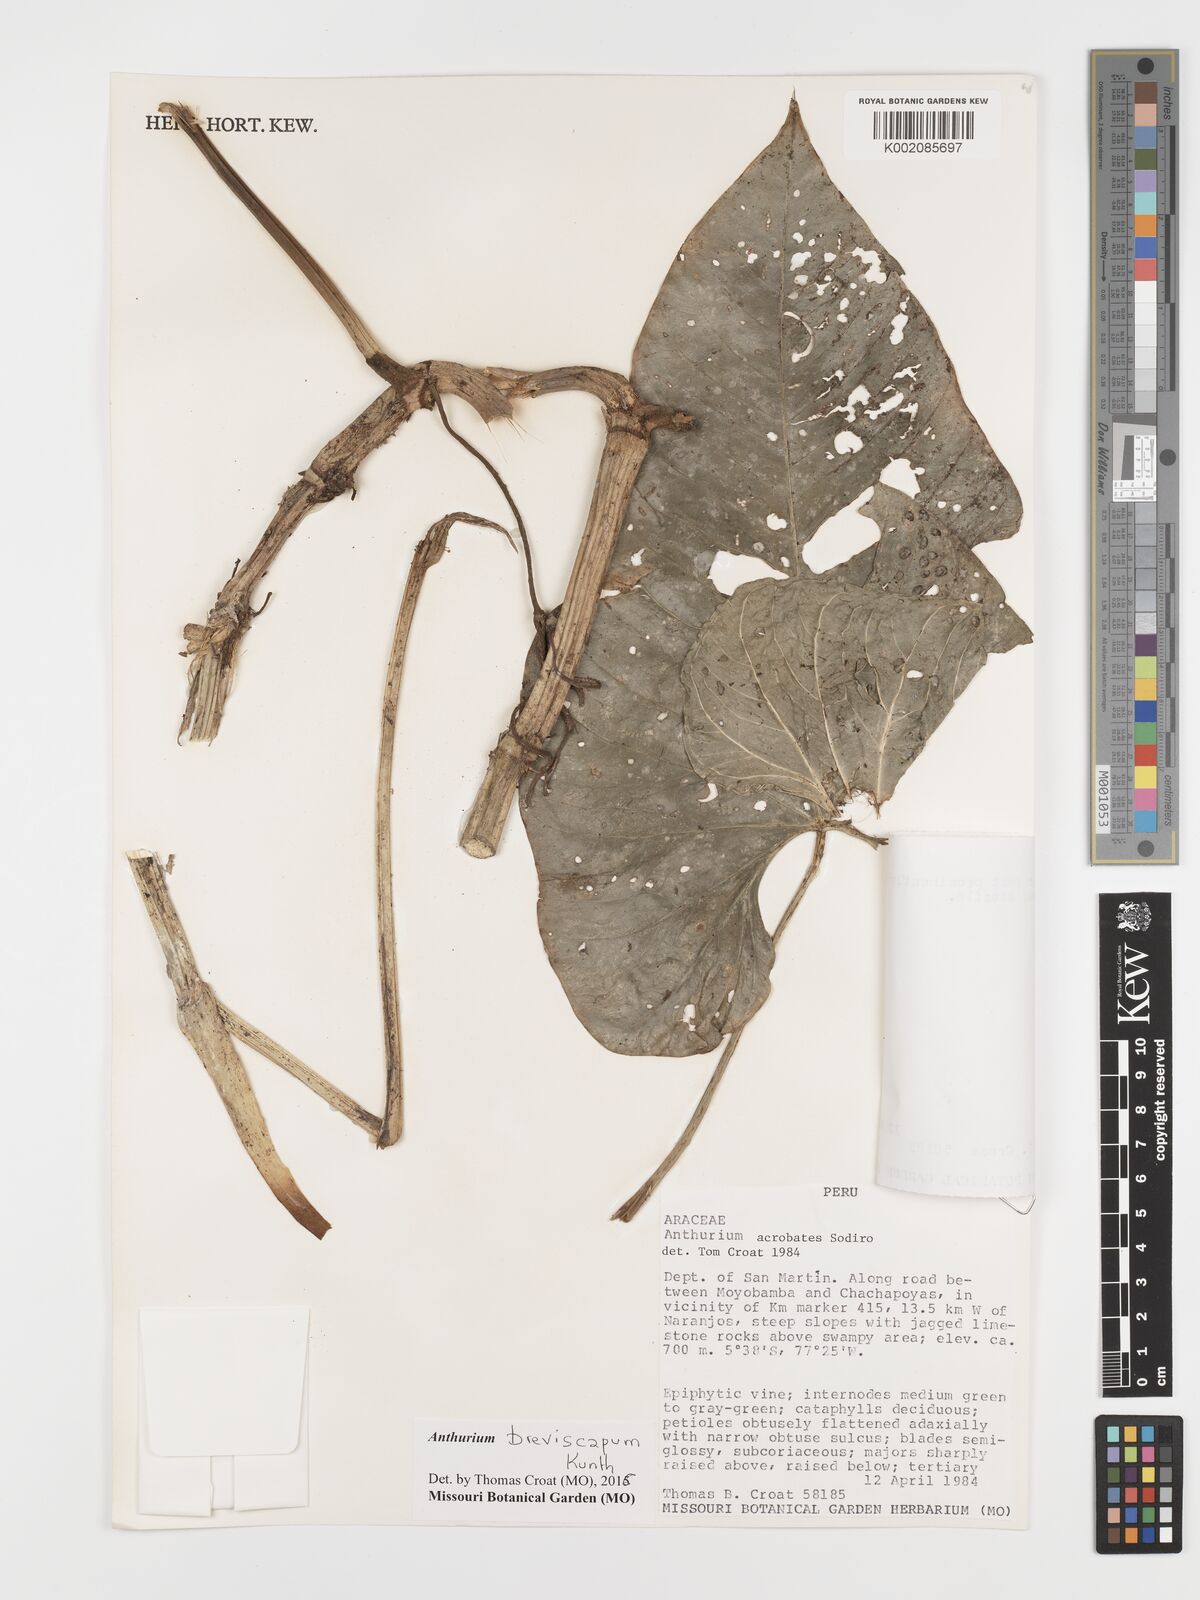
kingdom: Plantae
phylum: Tracheophyta
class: Liliopsida
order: Alismatales
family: Araceae
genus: Anthurium
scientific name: Anthurium breviscapum
